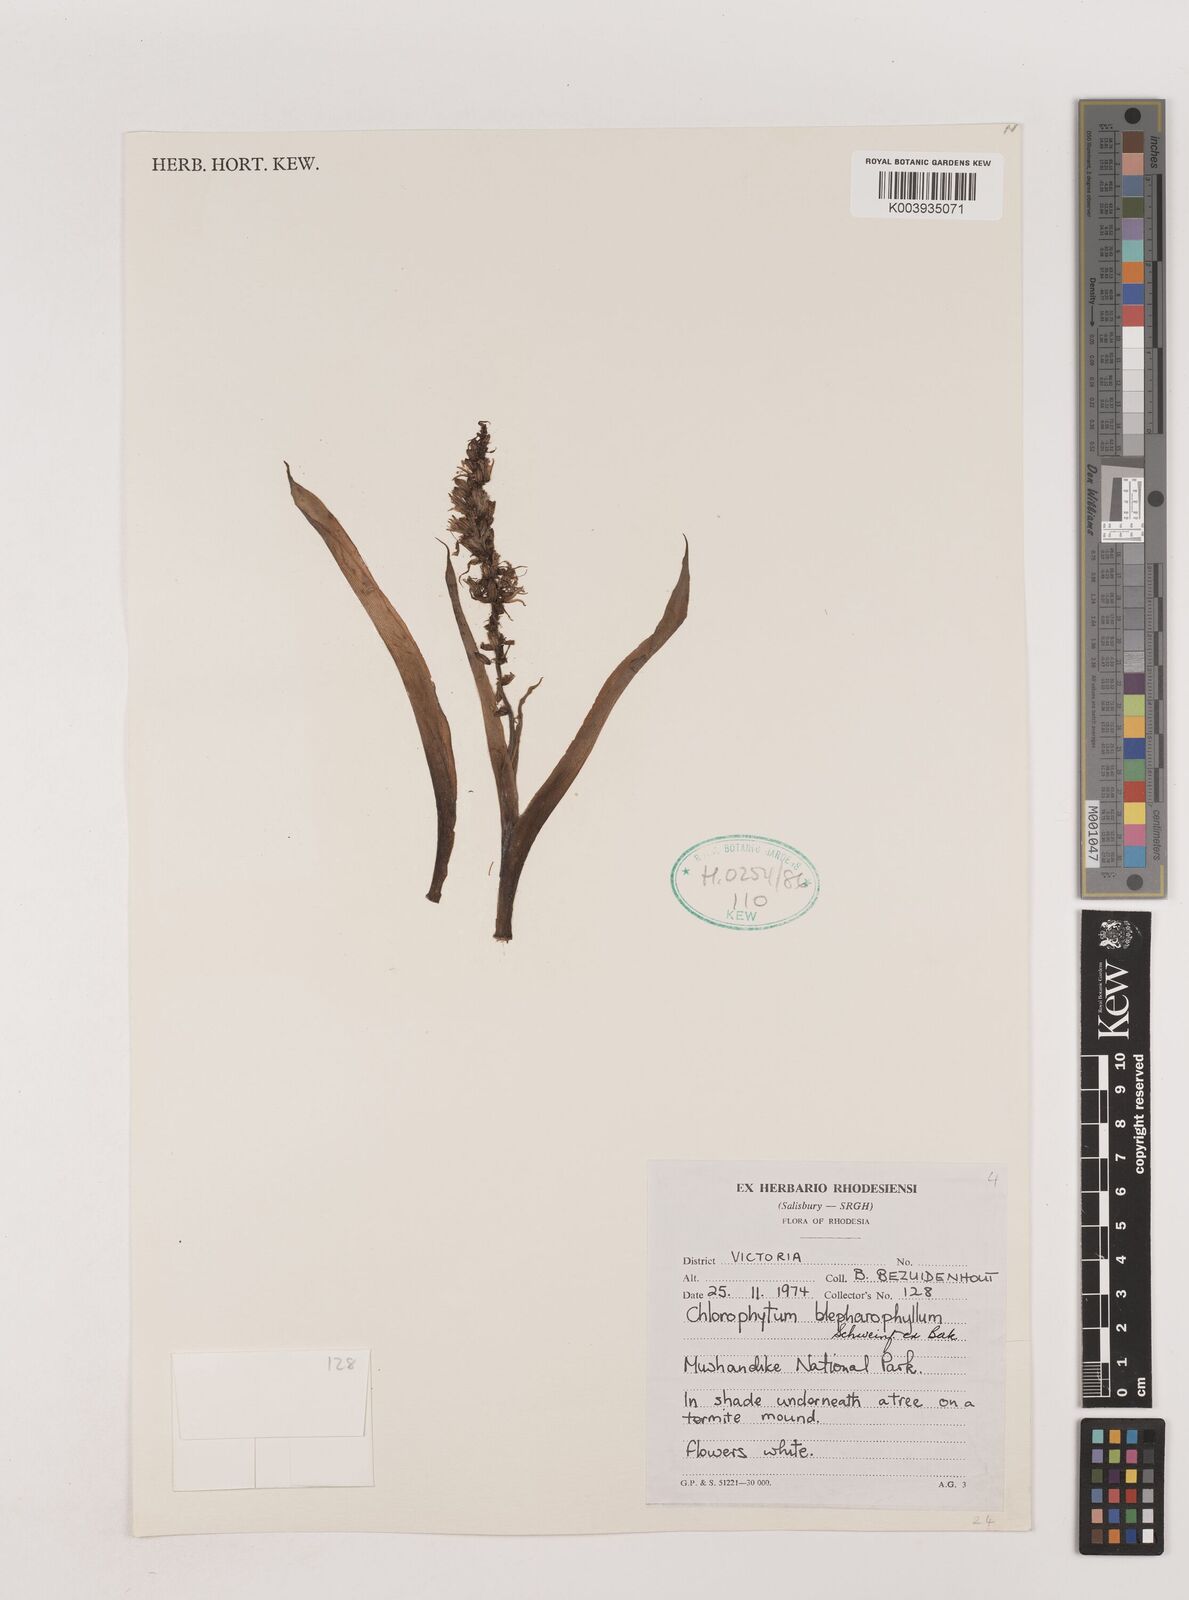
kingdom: Plantae
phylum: Tracheophyta
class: Liliopsida
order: Asparagales
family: Asparagaceae
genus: Chlorophytum
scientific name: Chlorophytum blepharophyllum
